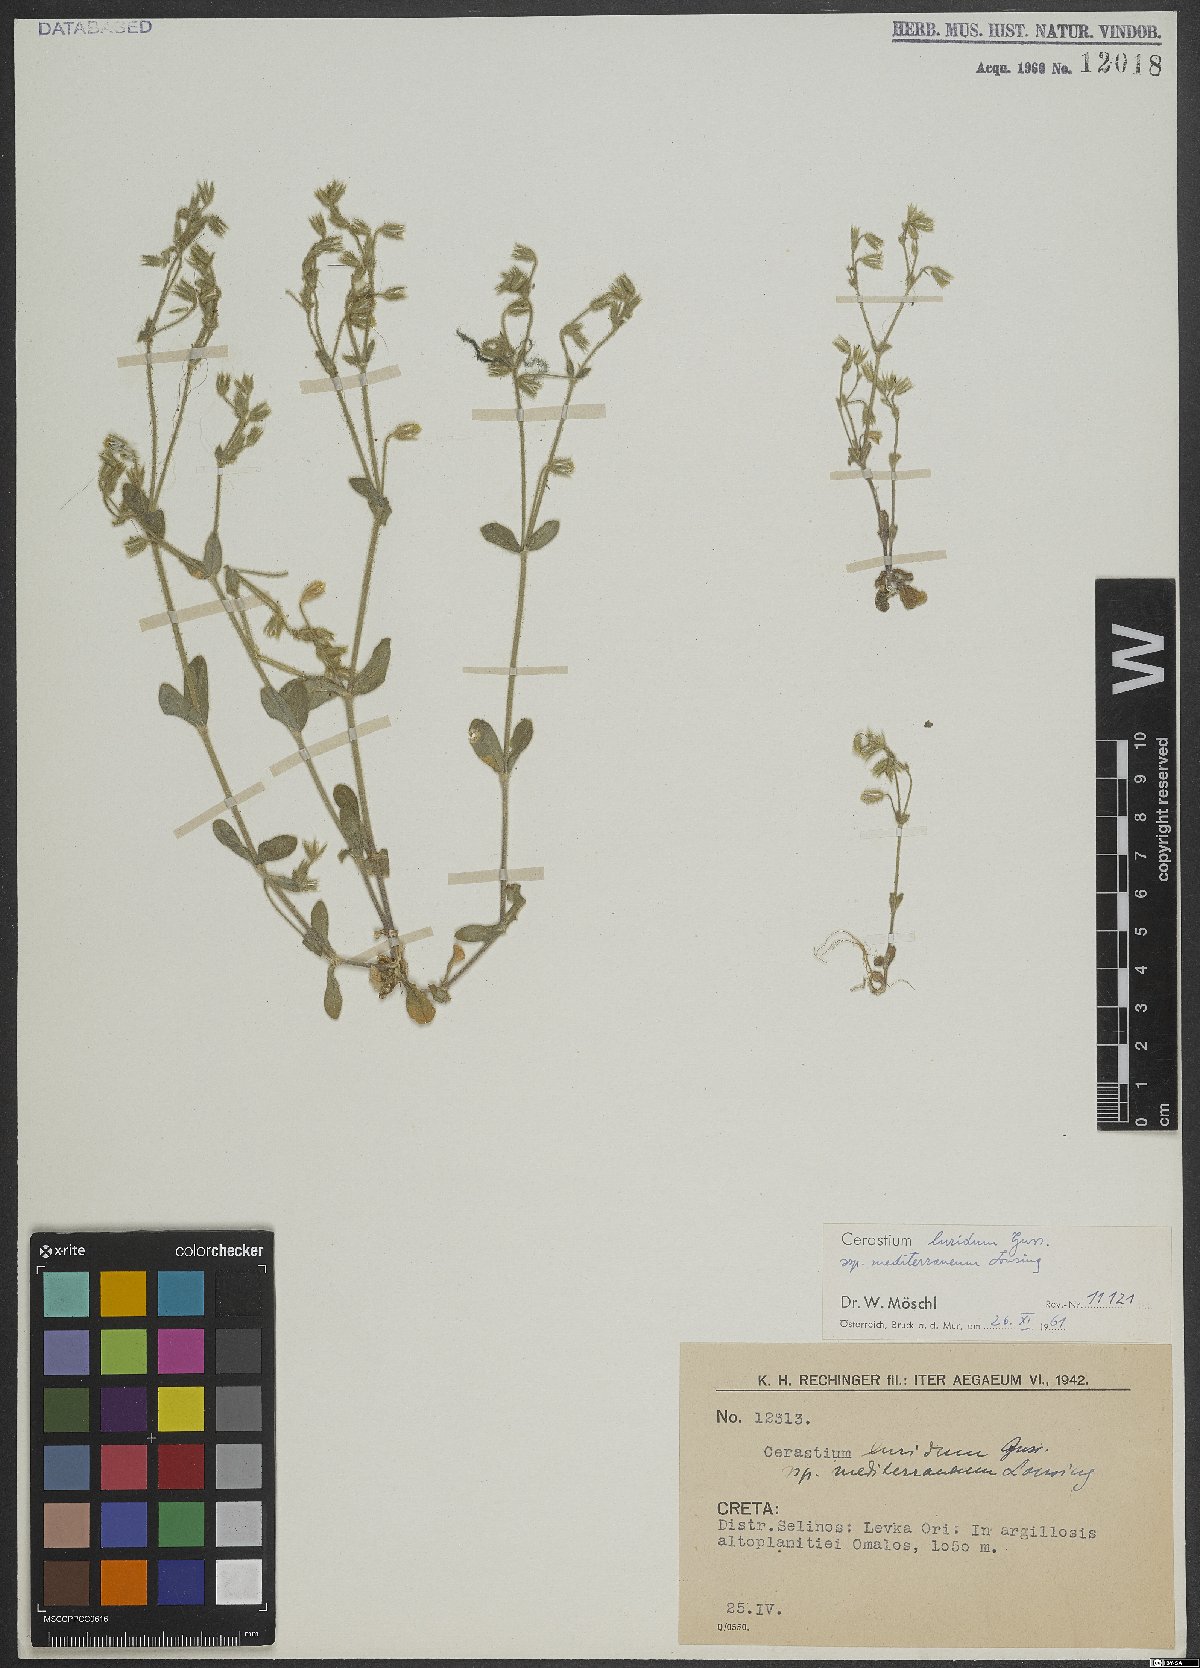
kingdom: Plantae
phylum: Tracheophyta
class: Magnoliopsida
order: Caryophyllales
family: Caryophyllaceae
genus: Cerastium
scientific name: Cerastium brachypetalum
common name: Grey mouse-ear
